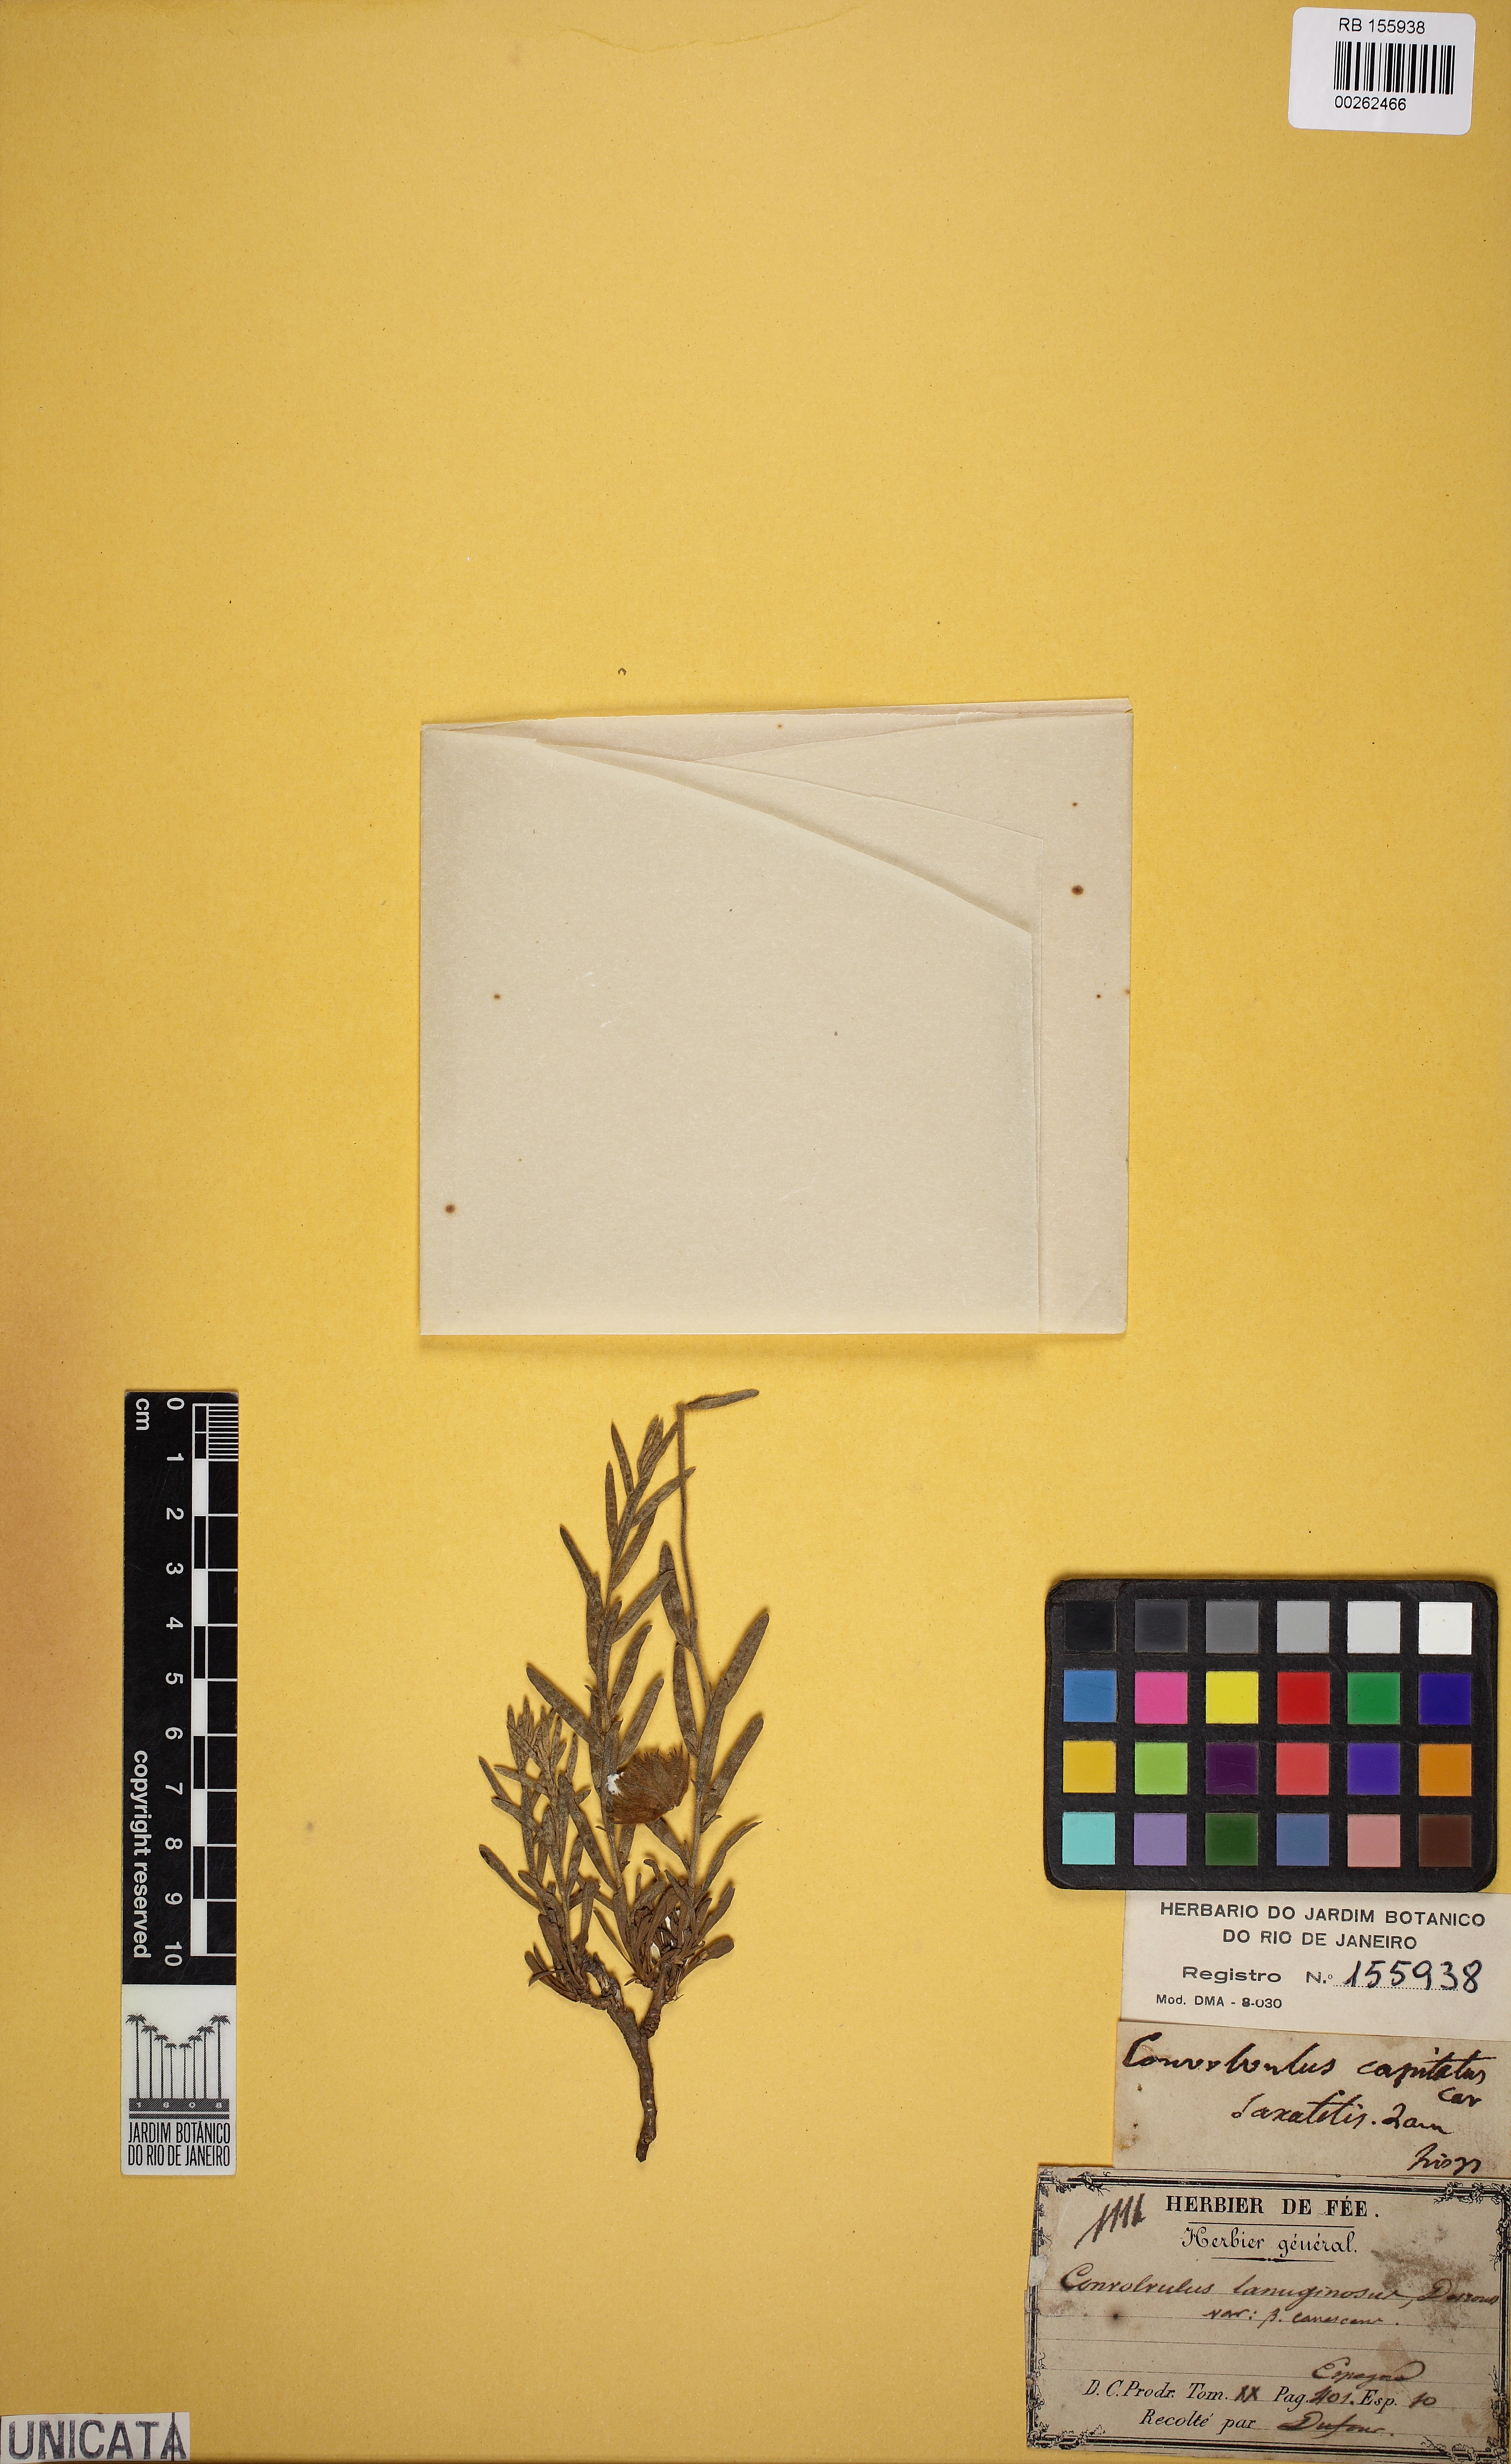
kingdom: Plantae
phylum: Tracheophyta
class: Magnoliopsida
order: Solanales
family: Convolvulaceae
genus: Convolvulus
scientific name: Convolvulus lanuginosus
